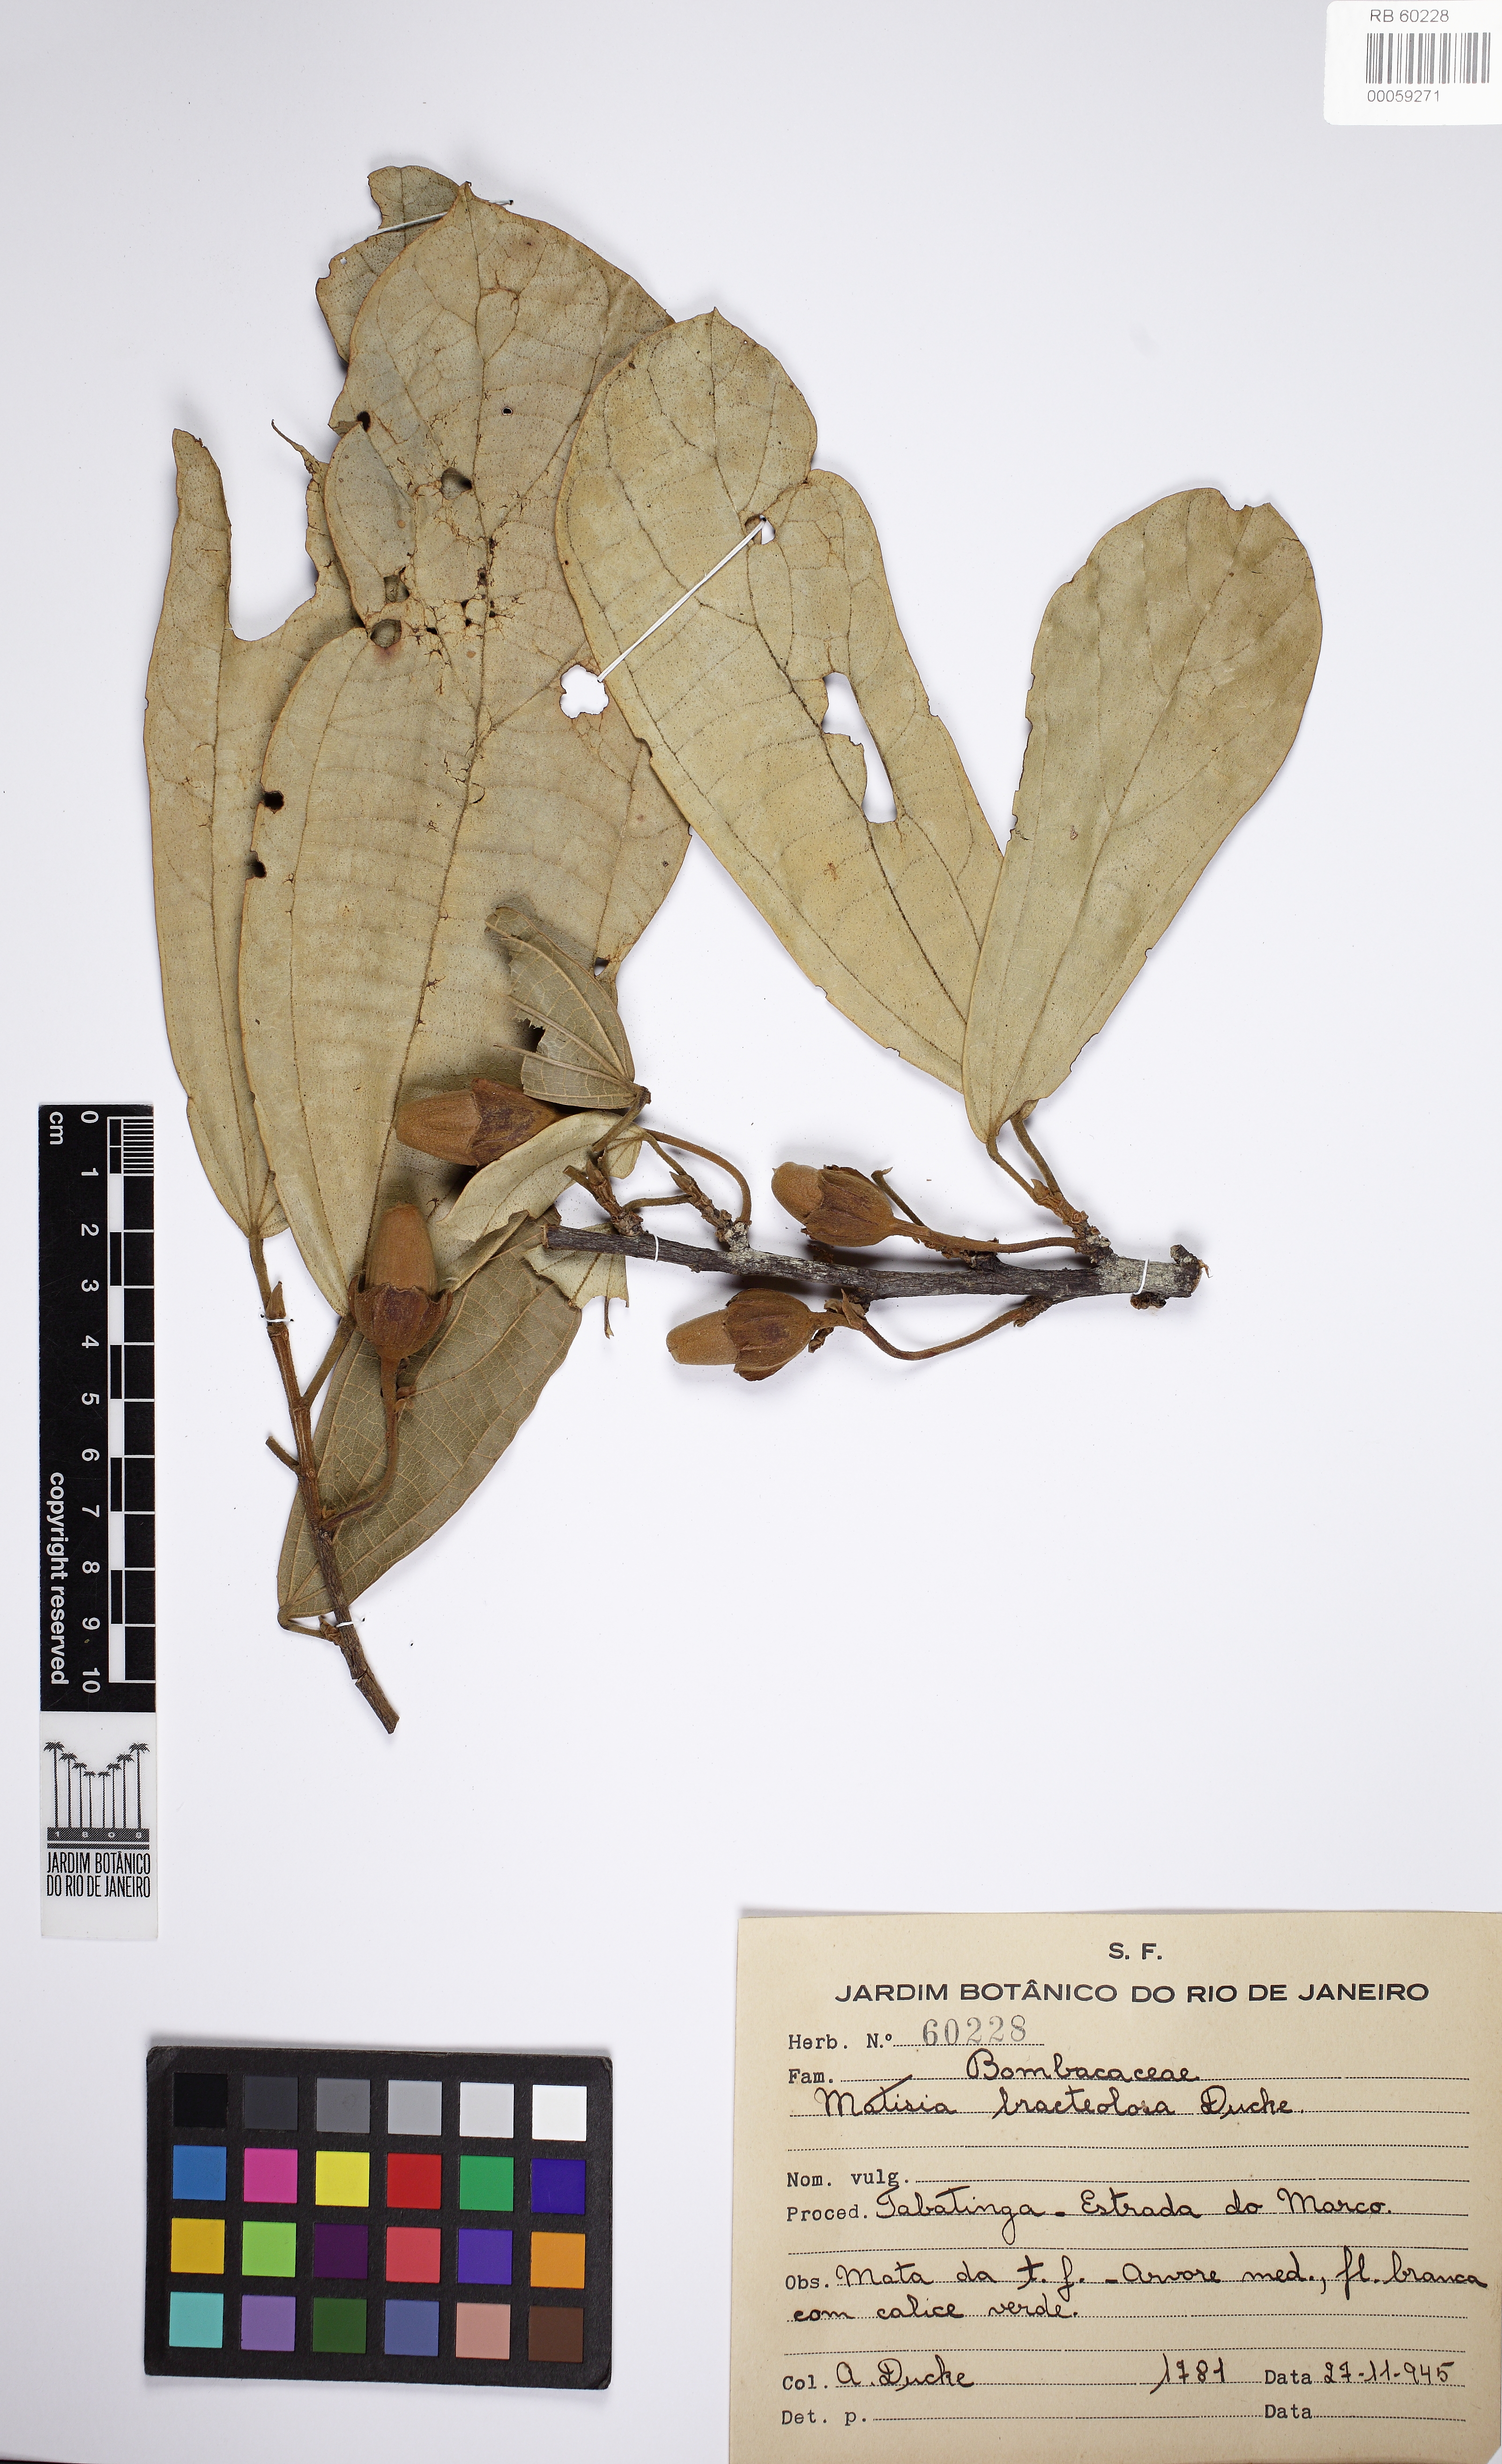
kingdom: Plantae
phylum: Tracheophyta
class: Magnoliopsida
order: Malvales
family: Malvaceae
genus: Matisia
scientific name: Matisia bracteolosa
